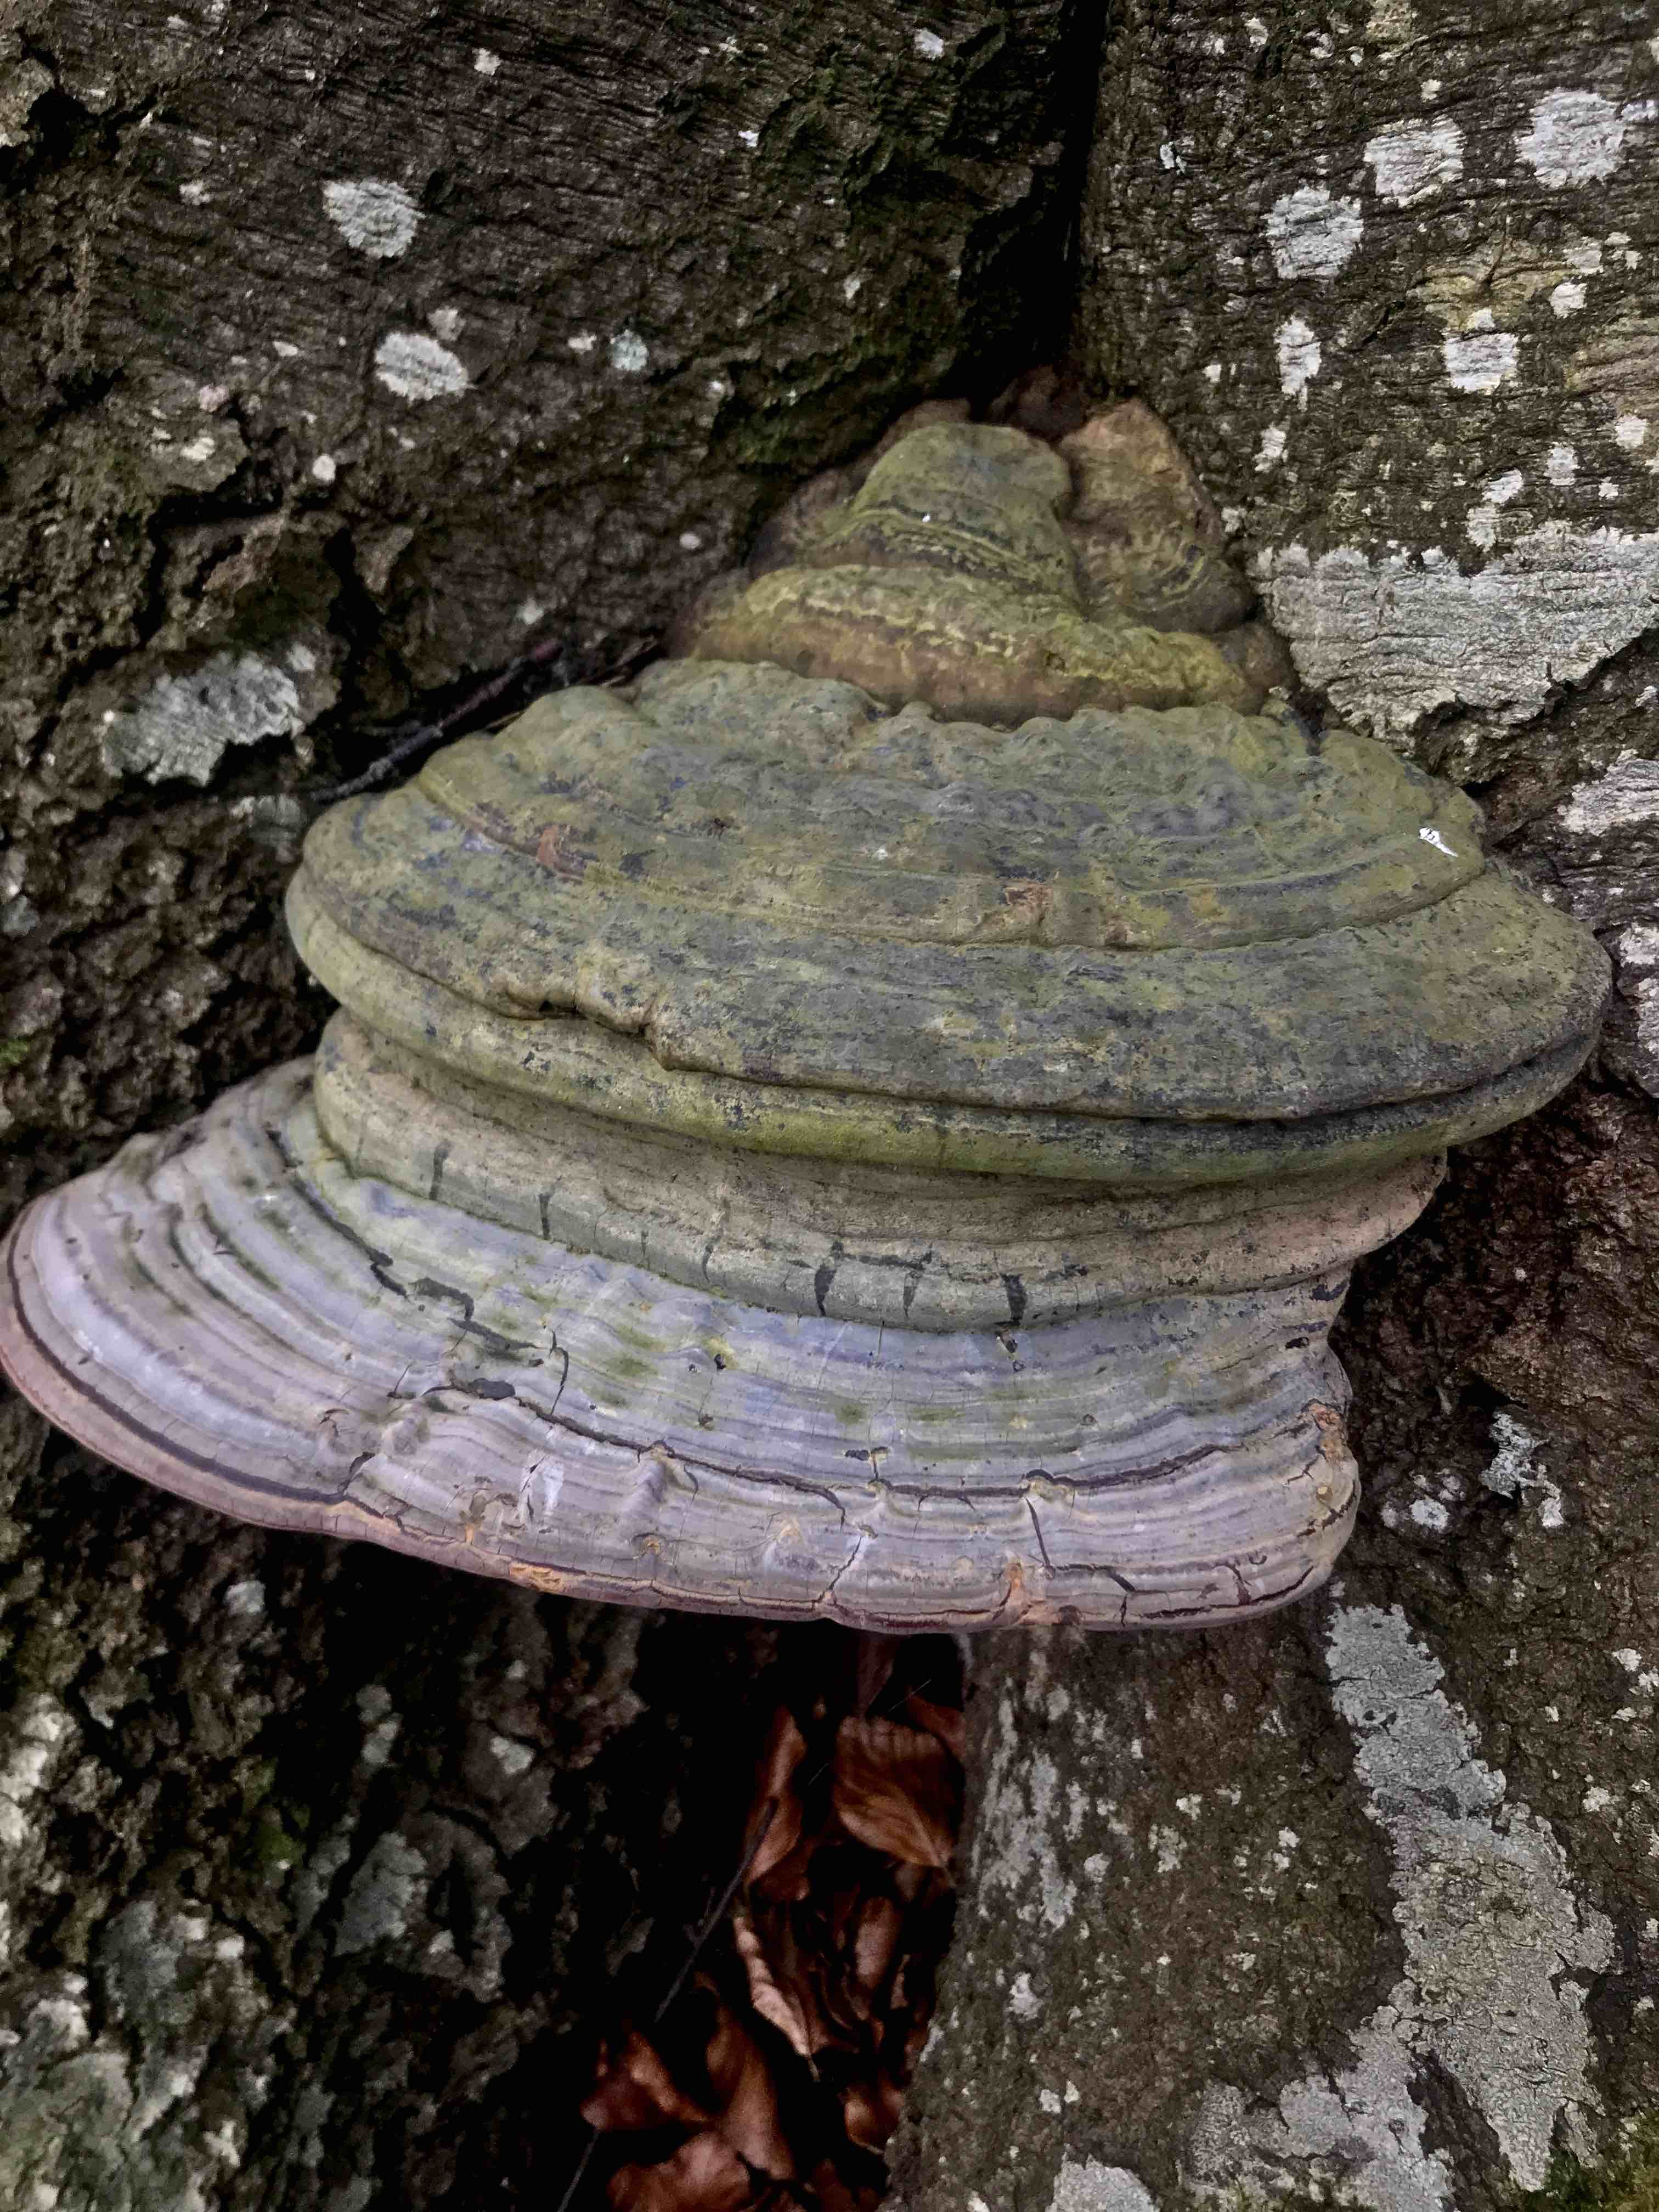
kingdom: Fungi
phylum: Basidiomycota
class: Agaricomycetes
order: Polyporales
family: Polyporaceae
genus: Ganoderma
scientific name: Ganoderma pfeifferi
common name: kobberrød lakporesvamp
